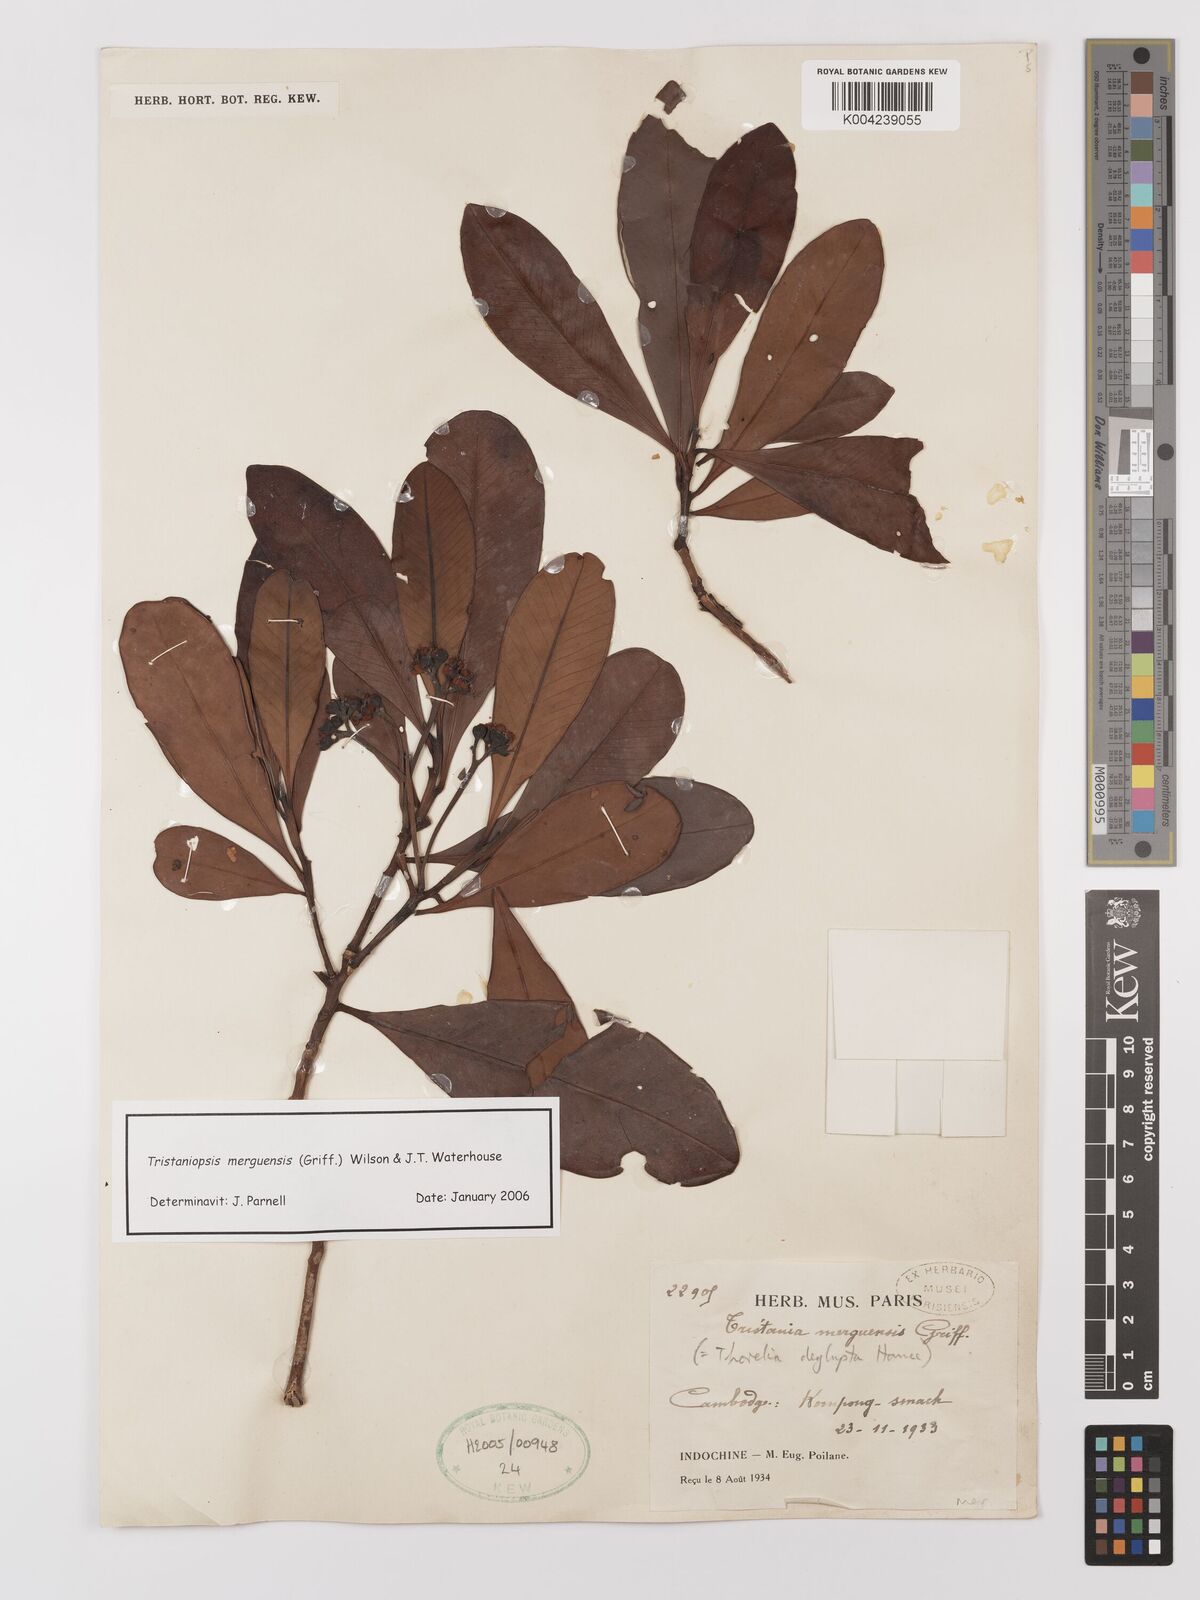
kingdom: Plantae
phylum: Tracheophyta
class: Magnoliopsida
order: Myrtales
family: Myrtaceae
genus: Tristaniopsis
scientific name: Tristaniopsis merguensis
